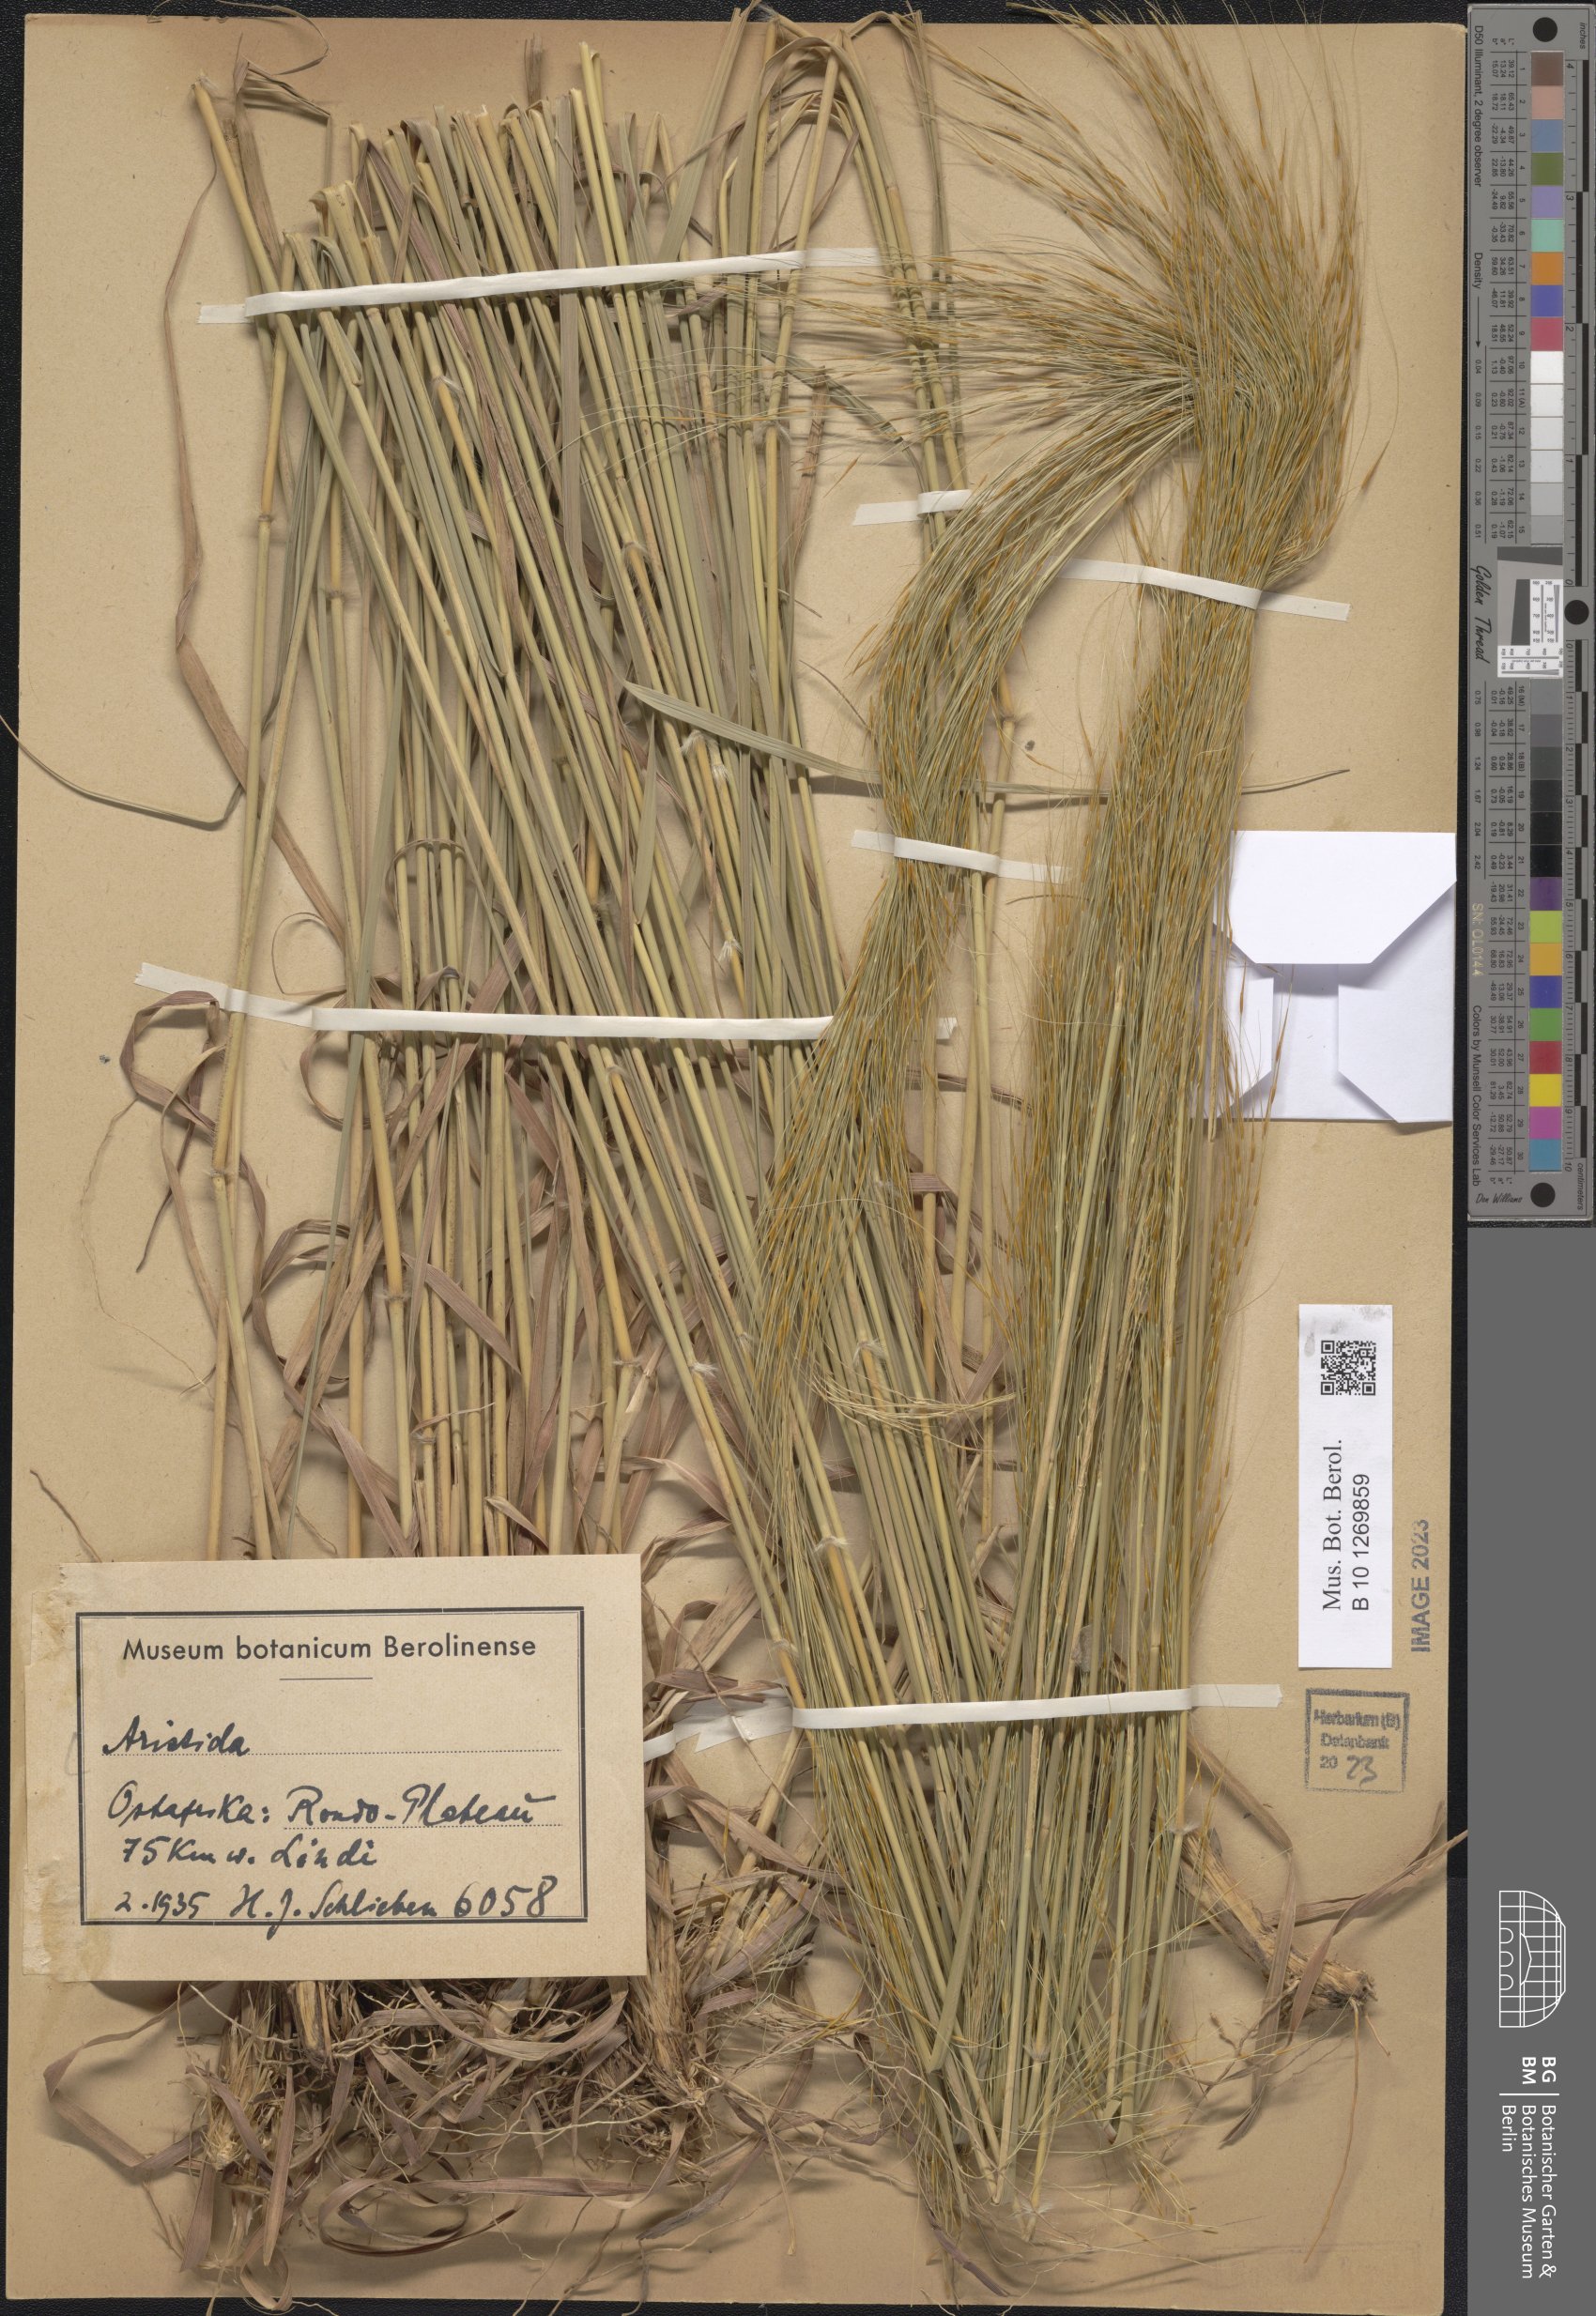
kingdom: Plantae
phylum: Tracheophyta
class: Liliopsida
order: Poales
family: Poaceae
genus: Aristida
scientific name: Aristida
